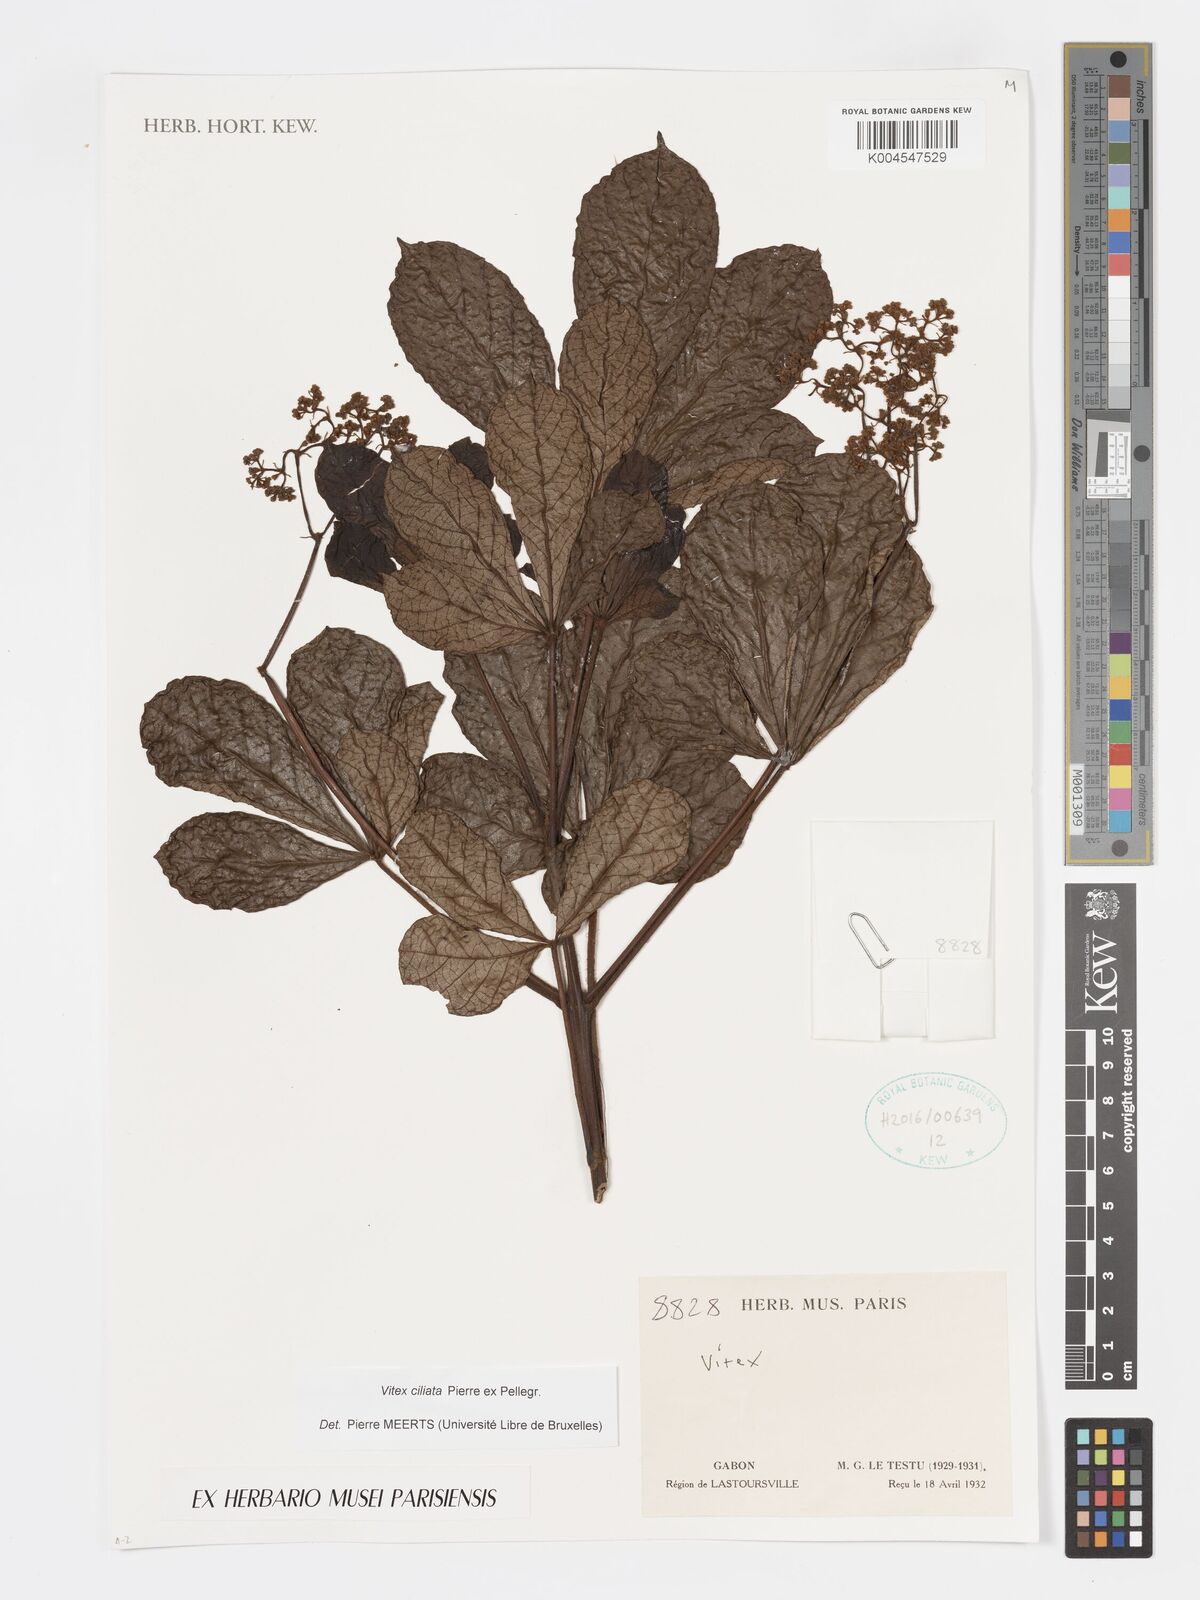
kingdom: Plantae
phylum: Tracheophyta
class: Magnoliopsida
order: Lamiales
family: Lamiaceae
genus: Vitex
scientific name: Vitex ciliata
